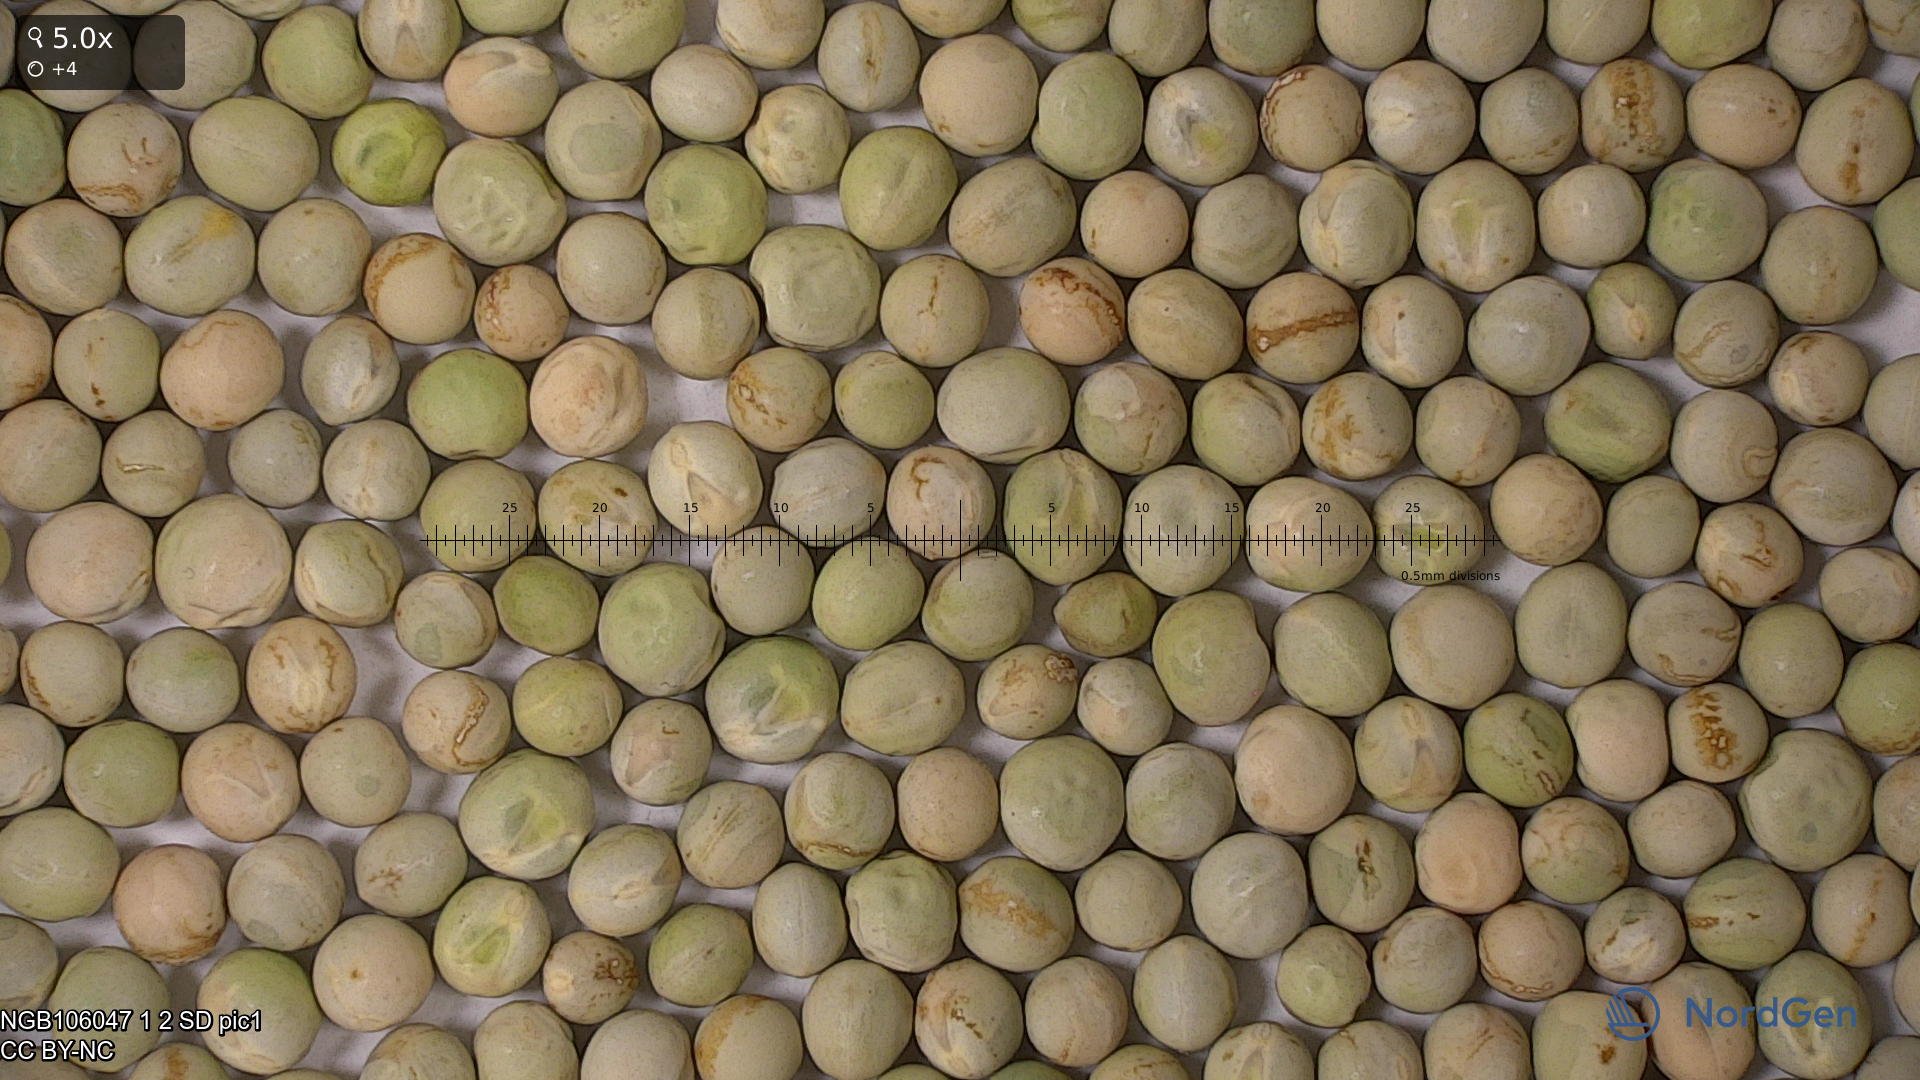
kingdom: Plantae
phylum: Tracheophyta
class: Magnoliopsida
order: Fabales
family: Fabaceae
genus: Lathyrus
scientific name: Lathyrus oleraceus
